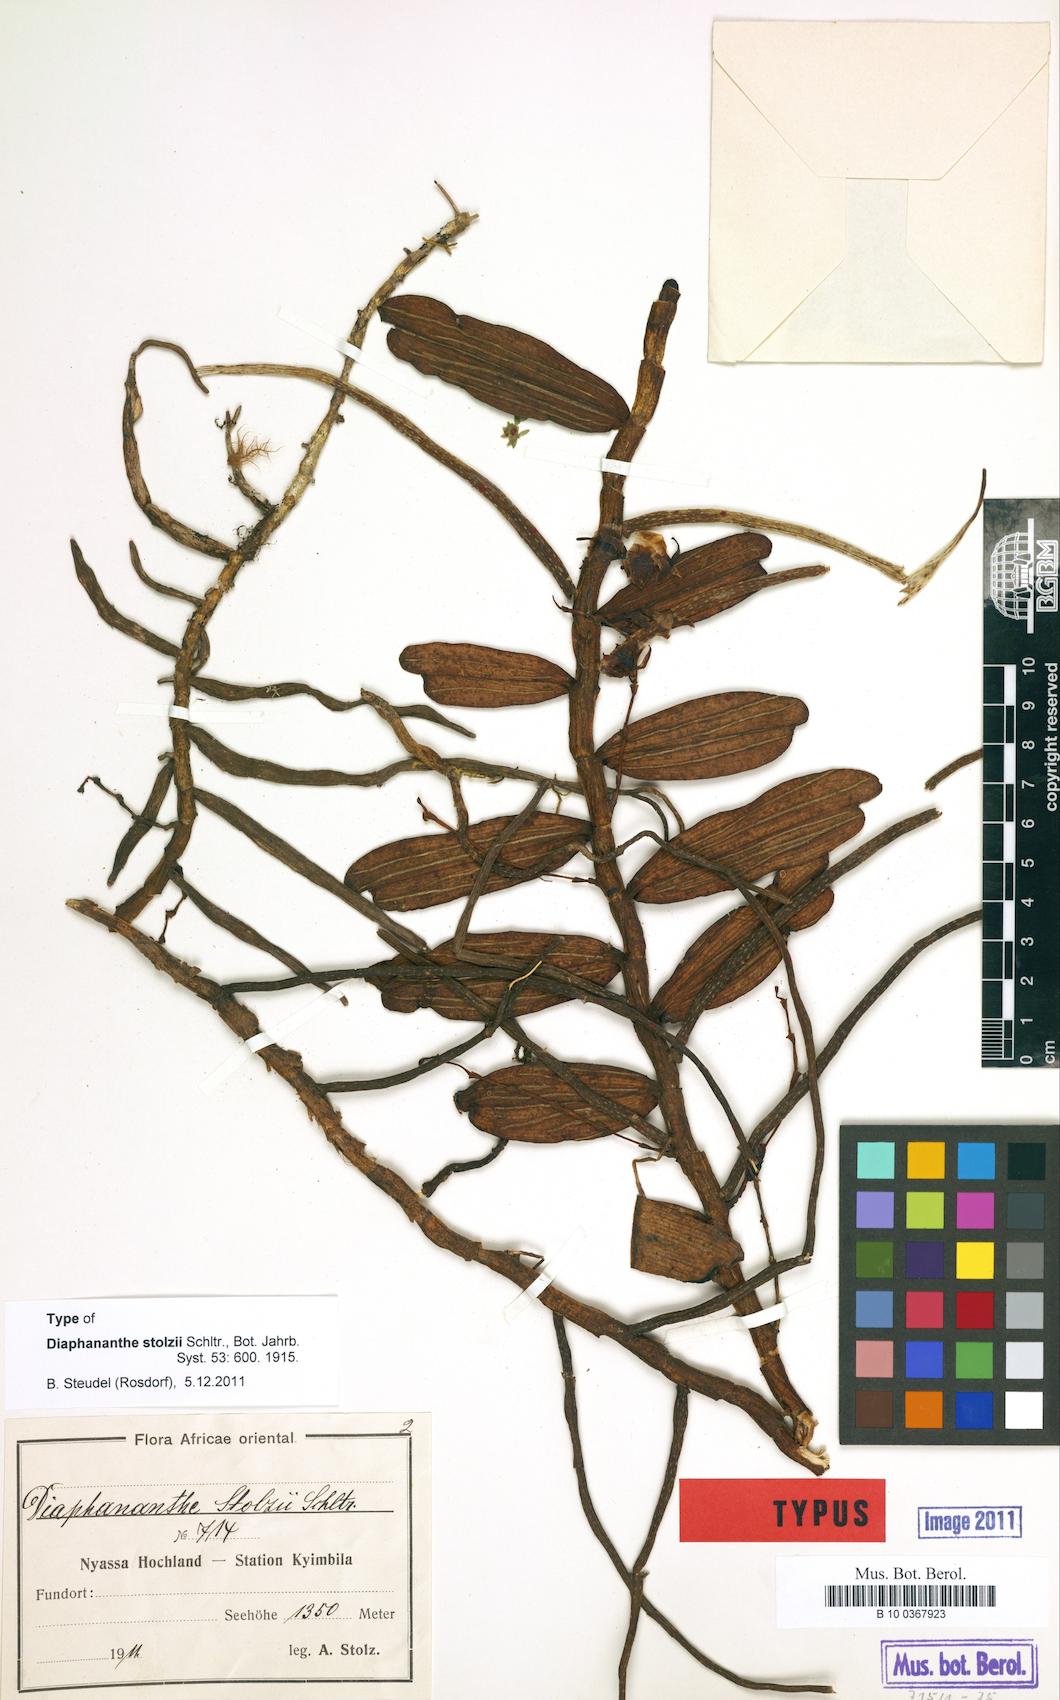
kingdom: Plantae
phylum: Tracheophyta
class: Liliopsida
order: Asparagales
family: Orchidaceae
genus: Rhipidoglossum
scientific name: Rhipidoglossum stolzii
